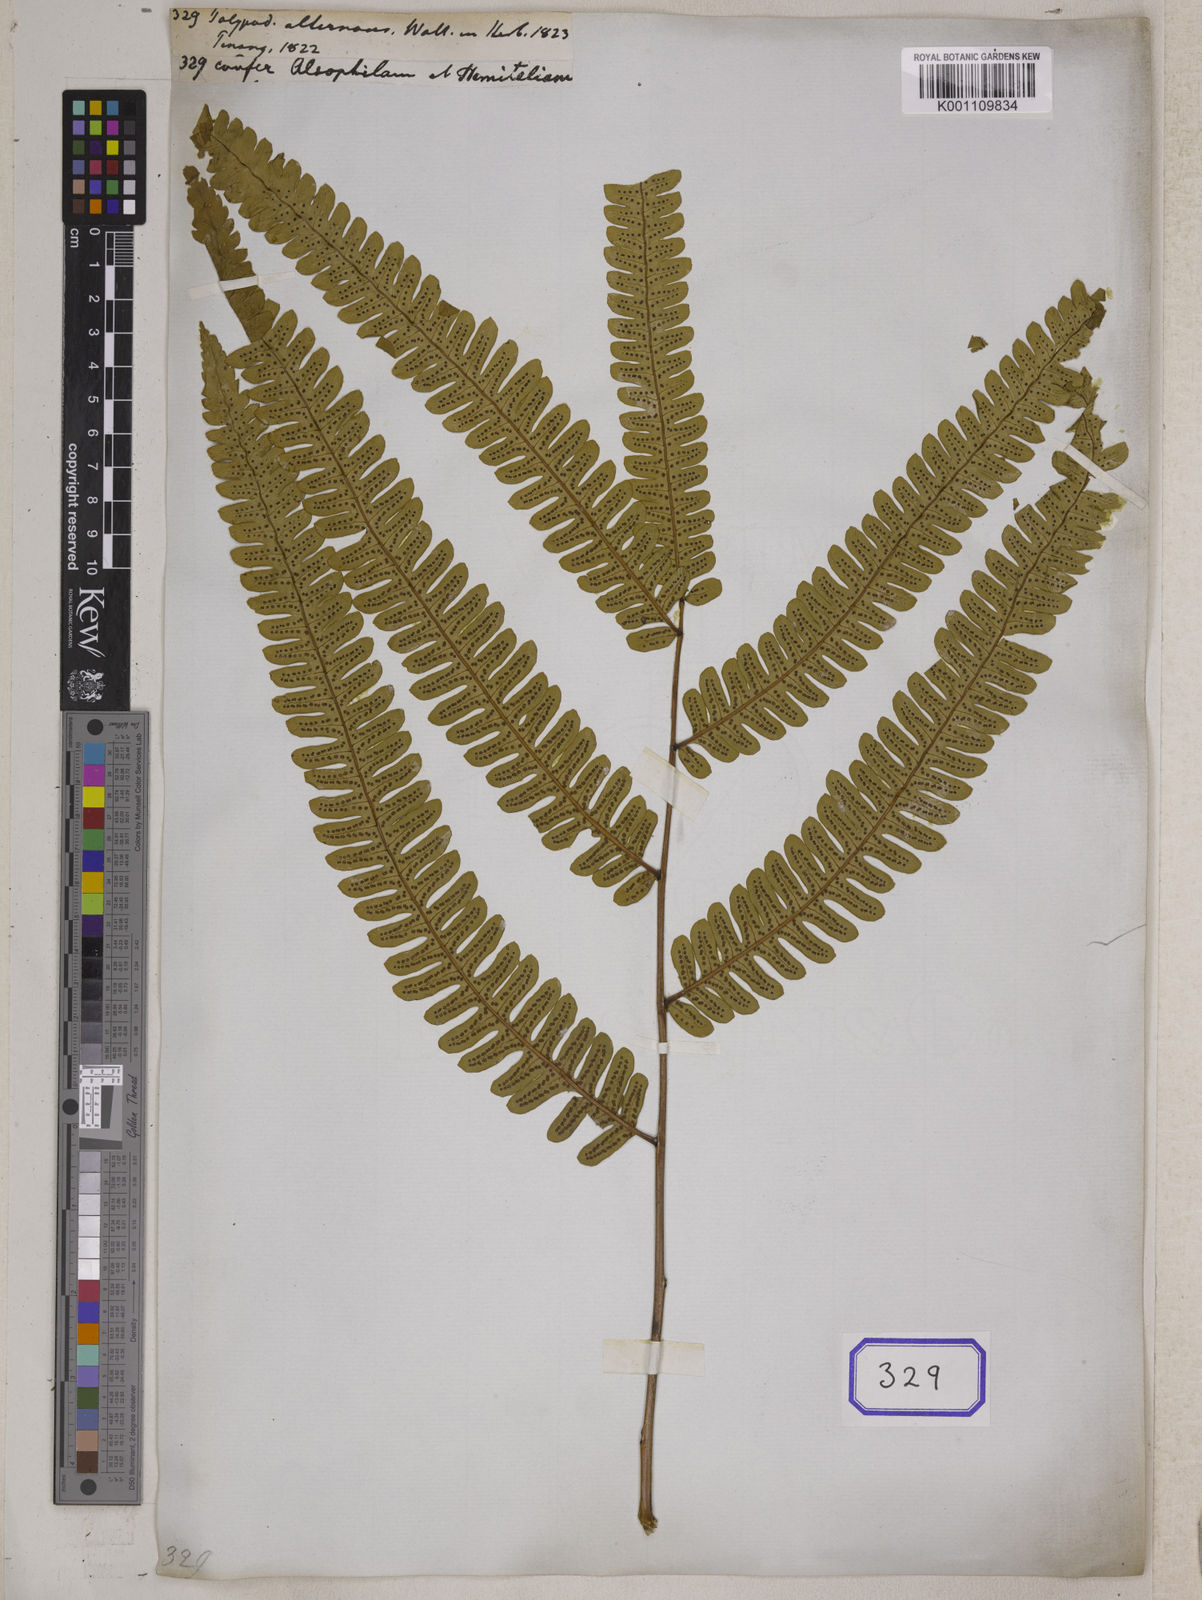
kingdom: Plantae
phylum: Tracheophyta
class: Polypodiopsida
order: Cyatheales
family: Cyatheaceae
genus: Alsophila
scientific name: Alsophila alternans
